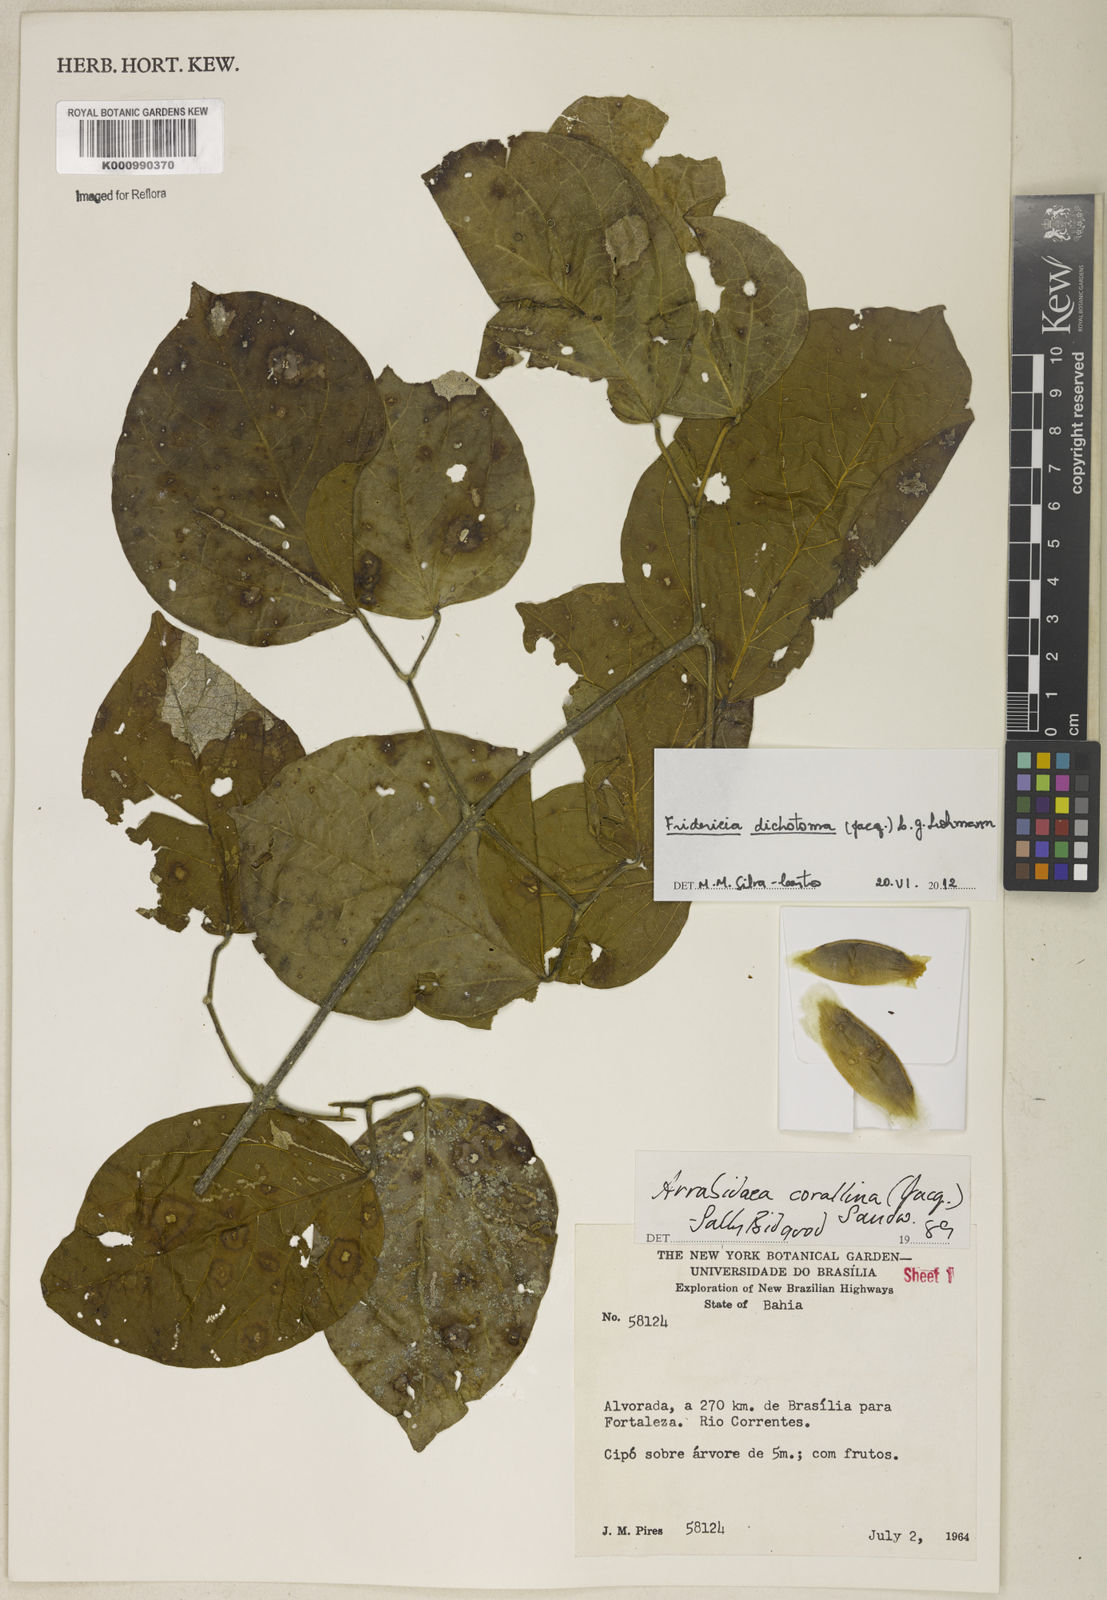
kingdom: Plantae
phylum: Tracheophyta
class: Magnoliopsida
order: Lamiales
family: Bignoniaceae
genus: Tanaecium
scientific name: Tanaecium dichotomum
